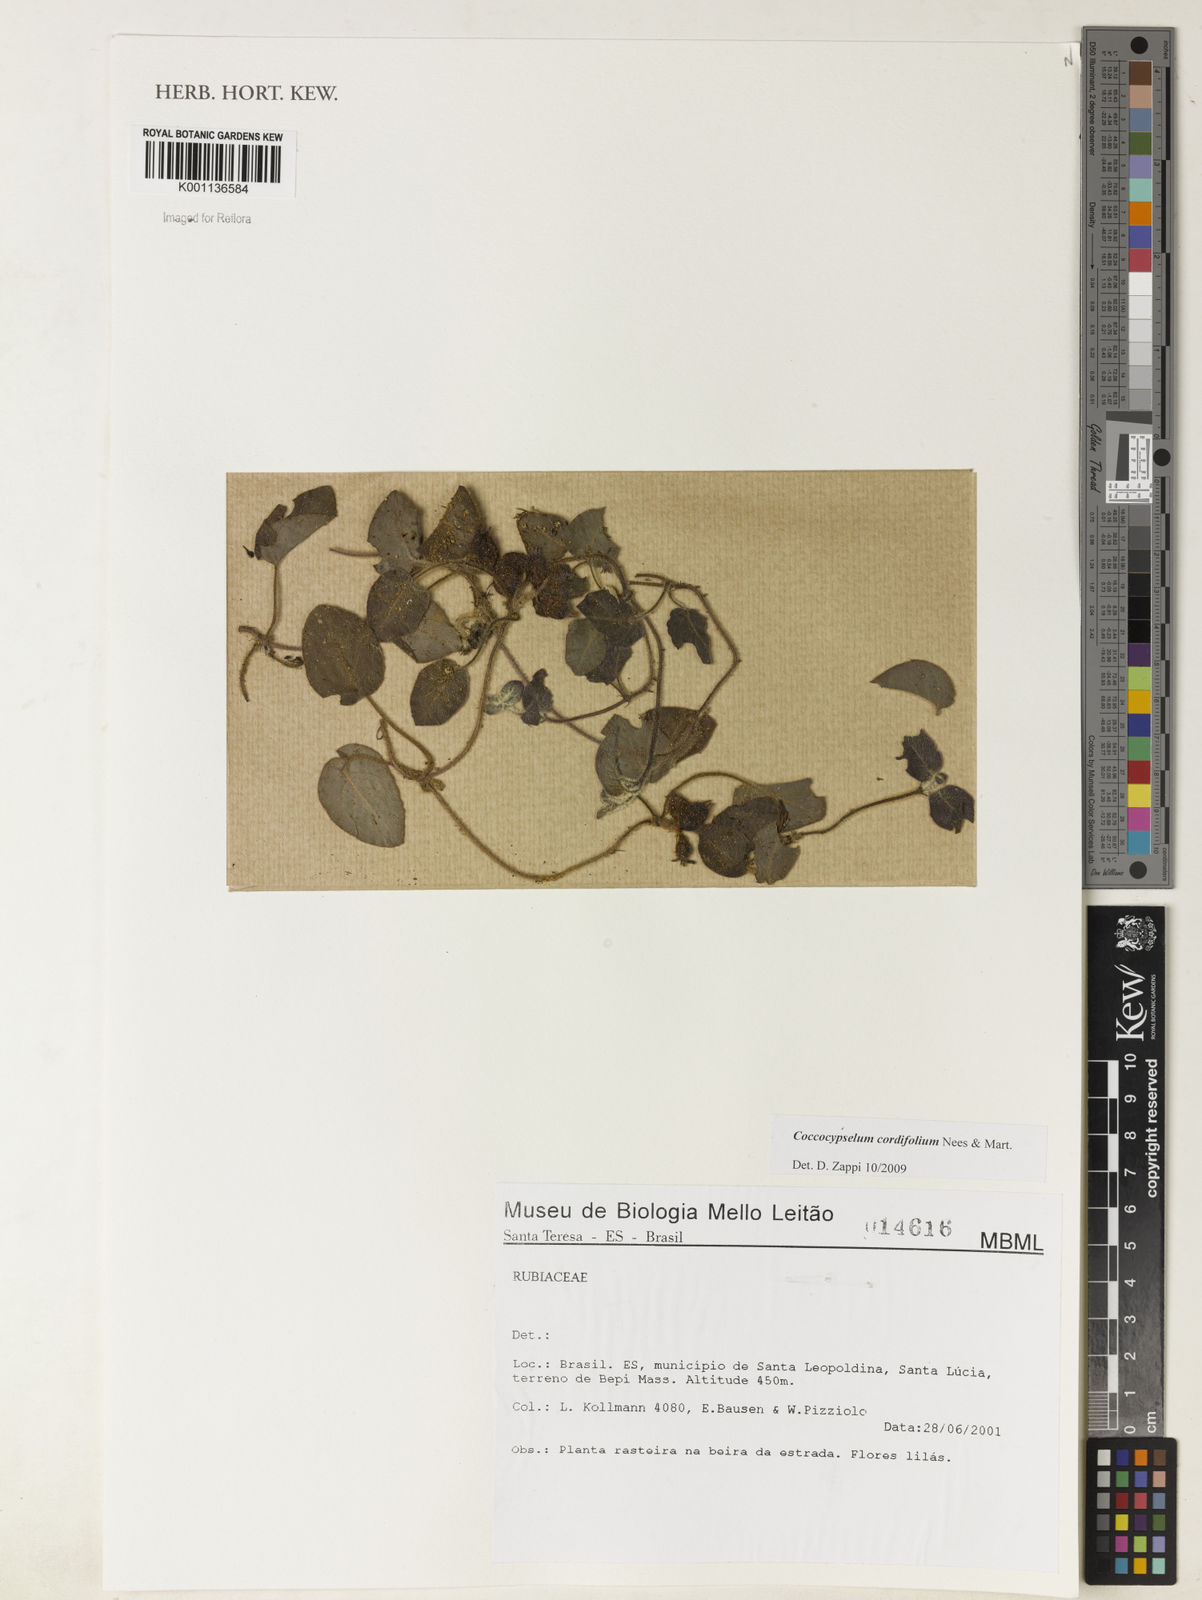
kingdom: Plantae
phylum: Tracheophyta
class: Magnoliopsida
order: Gentianales
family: Rubiaceae
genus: Coccocypselum
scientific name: Coccocypselum cordifolium
